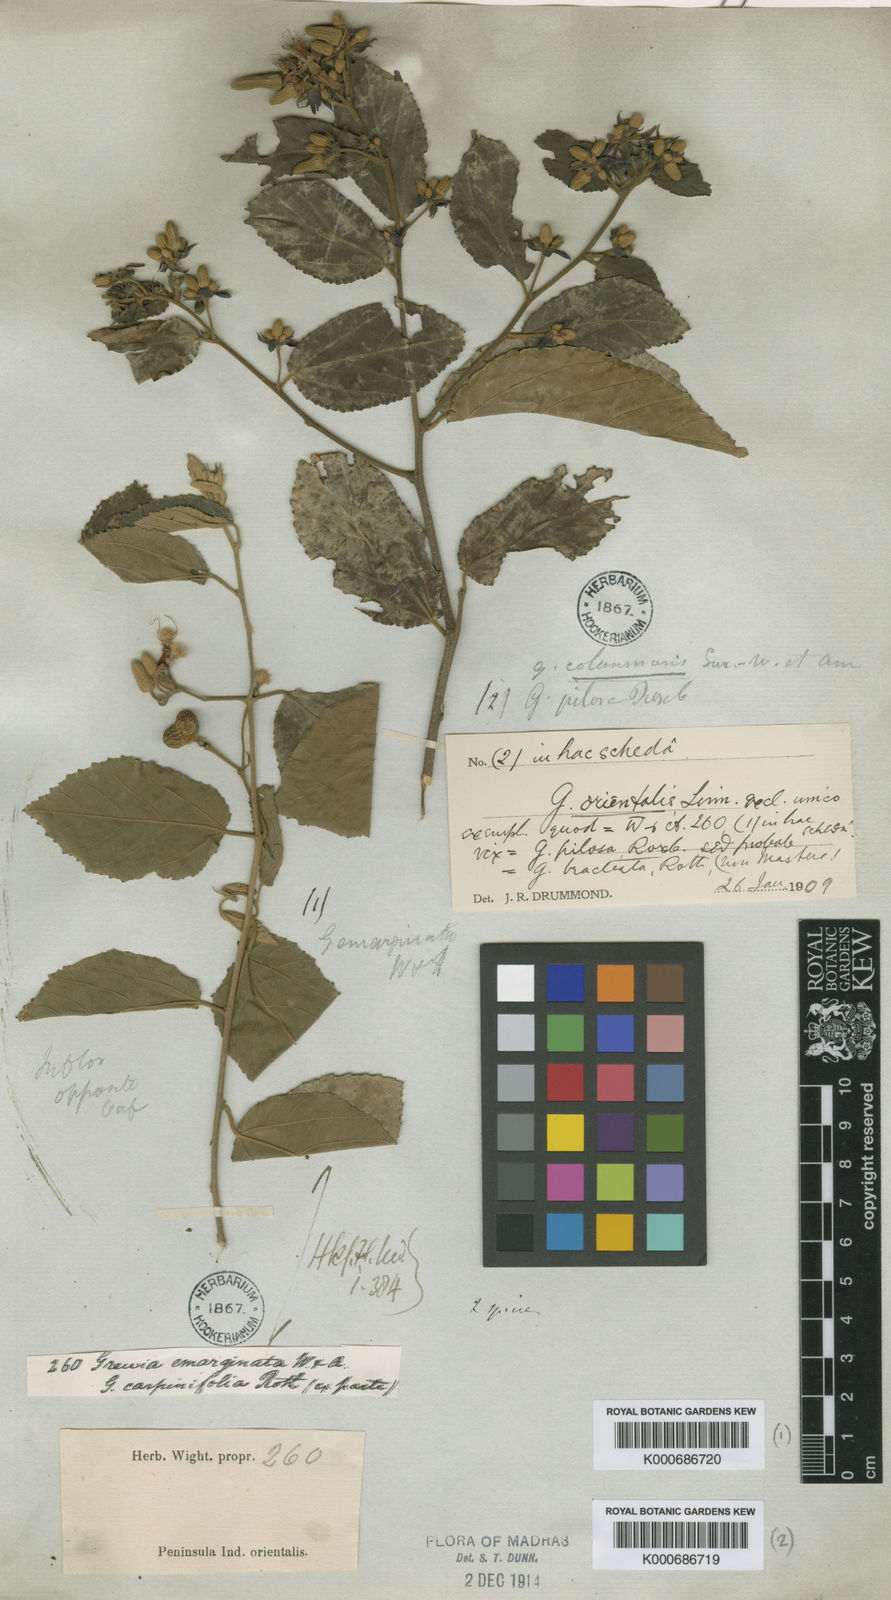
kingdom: Plantae
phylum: Tracheophyta
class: Magnoliopsida
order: Malvales
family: Malvaceae
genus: Grewia
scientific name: Grewia oppositifolia
